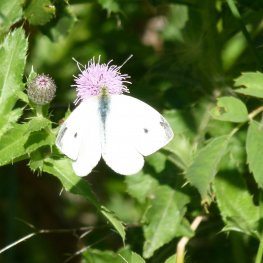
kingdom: Animalia
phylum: Arthropoda
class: Insecta
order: Lepidoptera
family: Pieridae
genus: Pieris
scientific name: Pieris rapae
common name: Cabbage White
